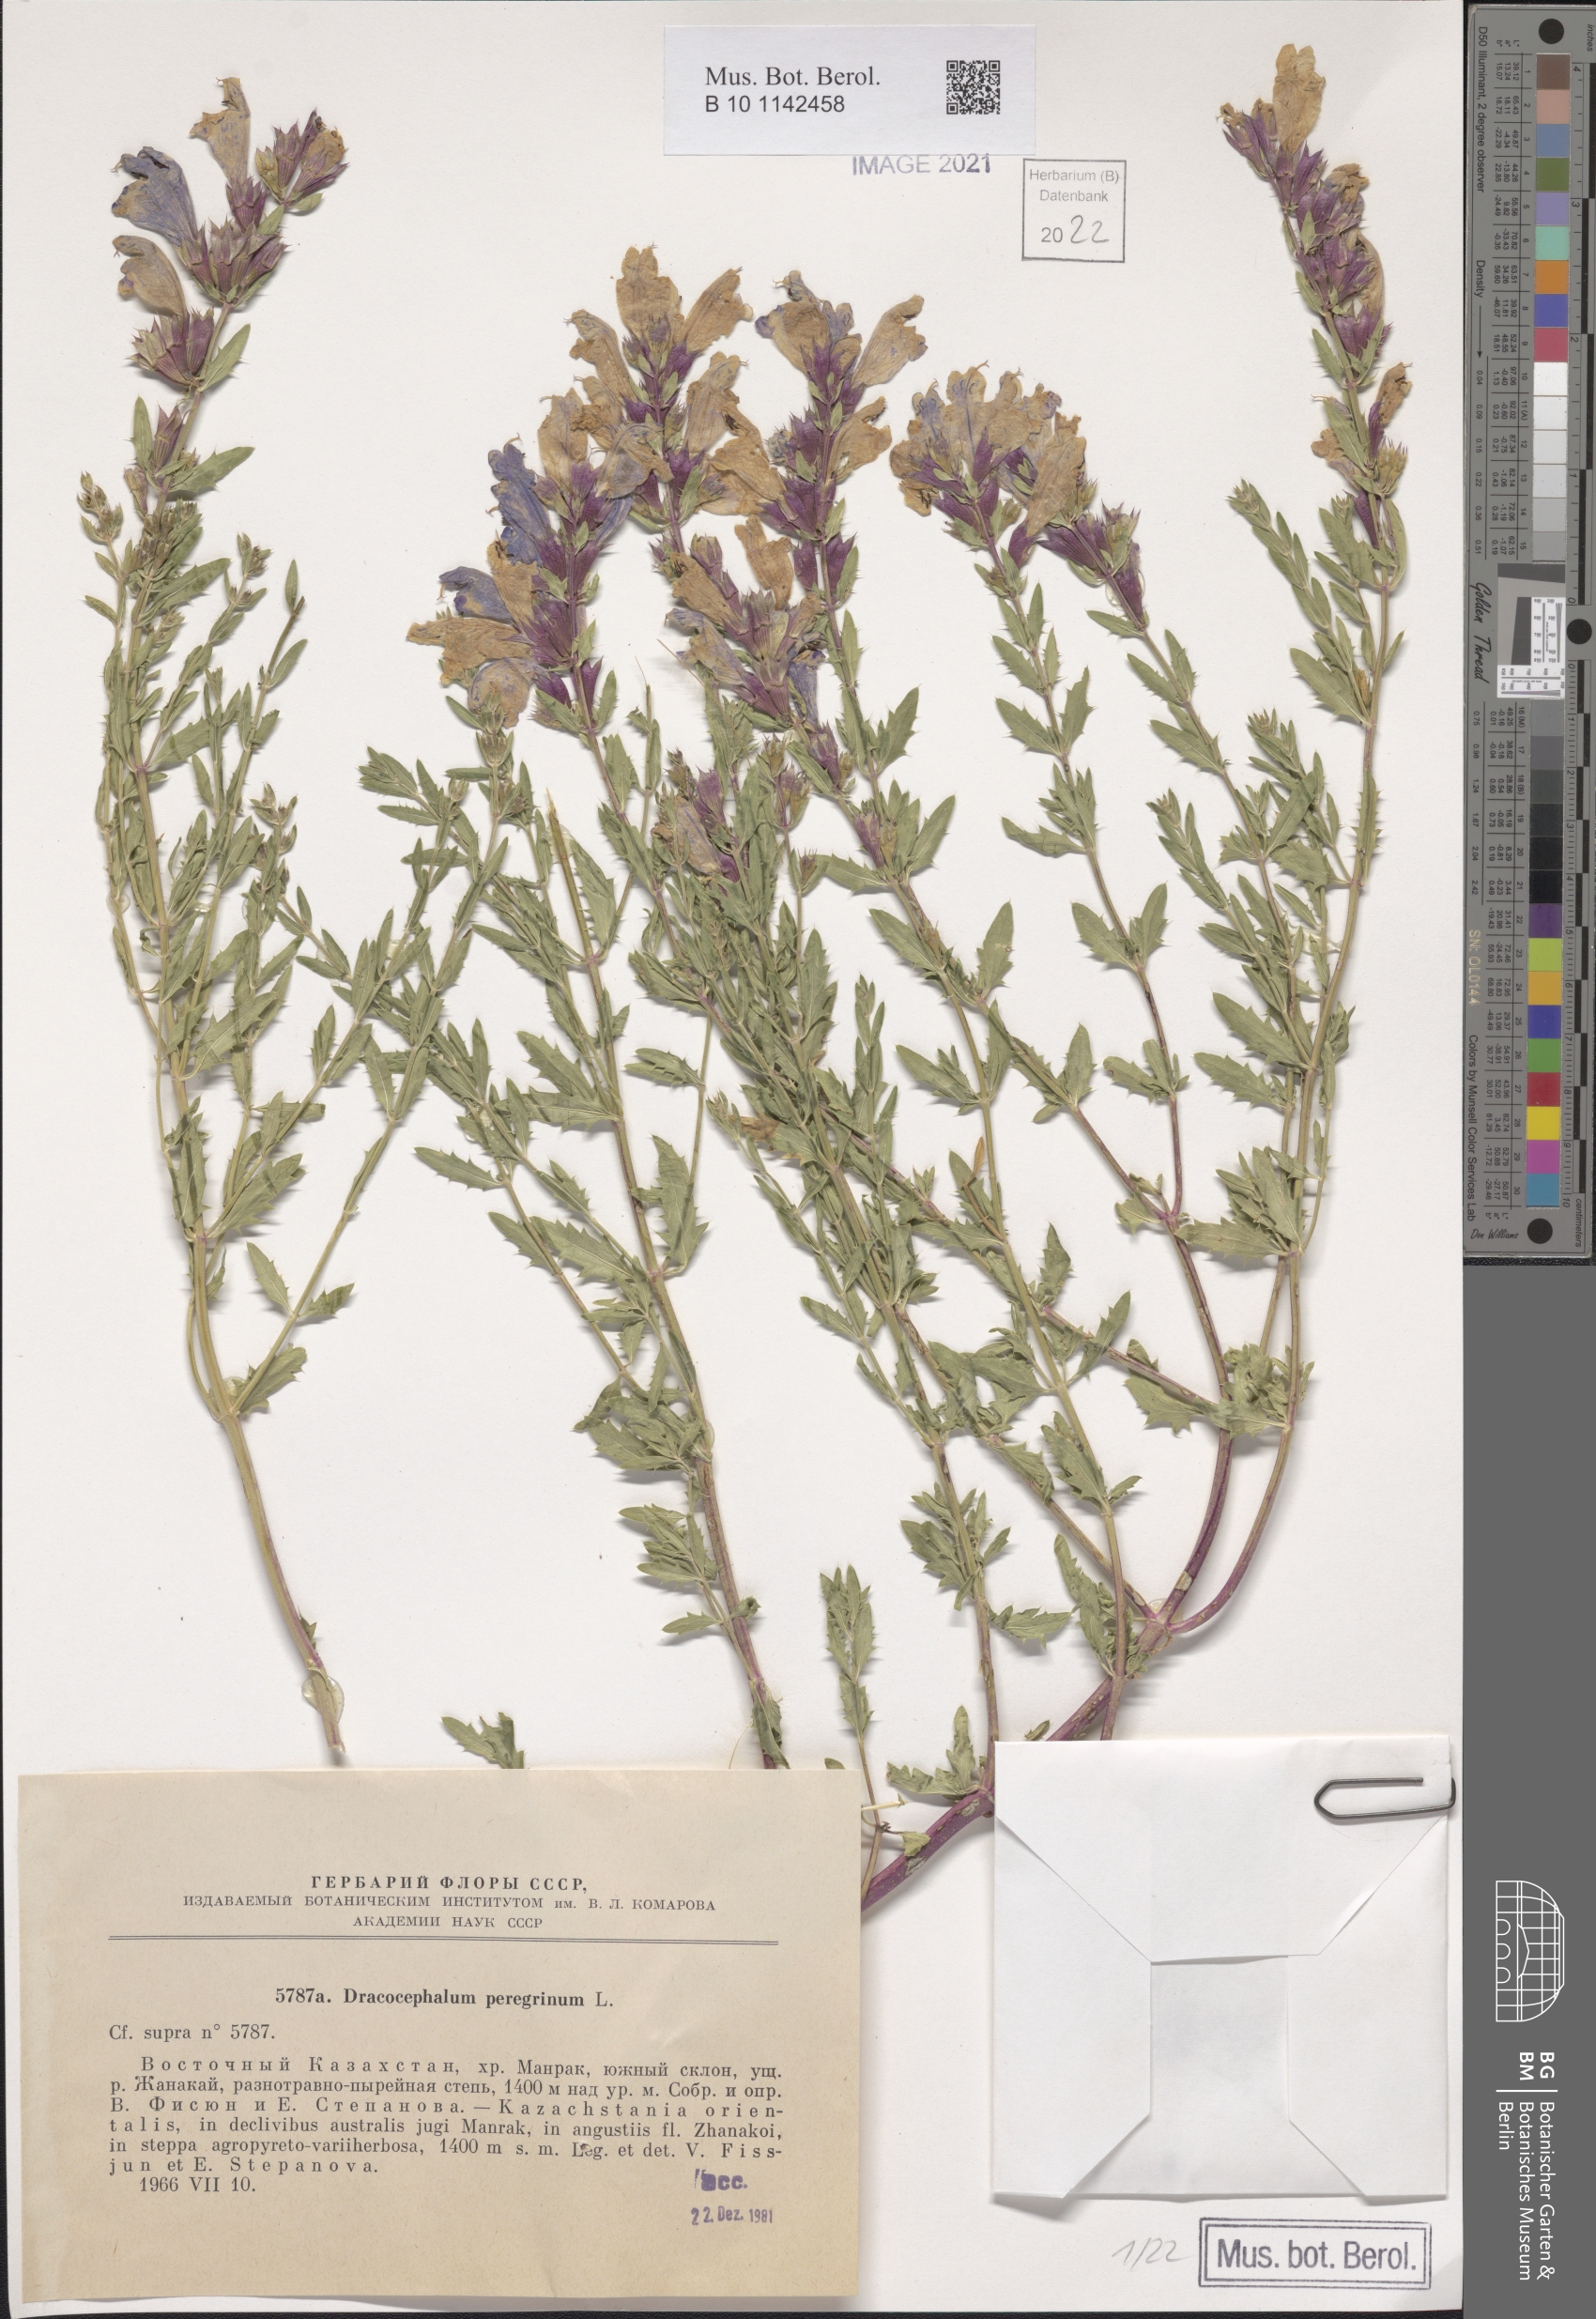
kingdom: Plantae
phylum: Tracheophyta
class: Magnoliopsida
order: Lamiales
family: Lamiaceae
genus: Dracocephalum
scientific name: Dracocephalum peregrinum
